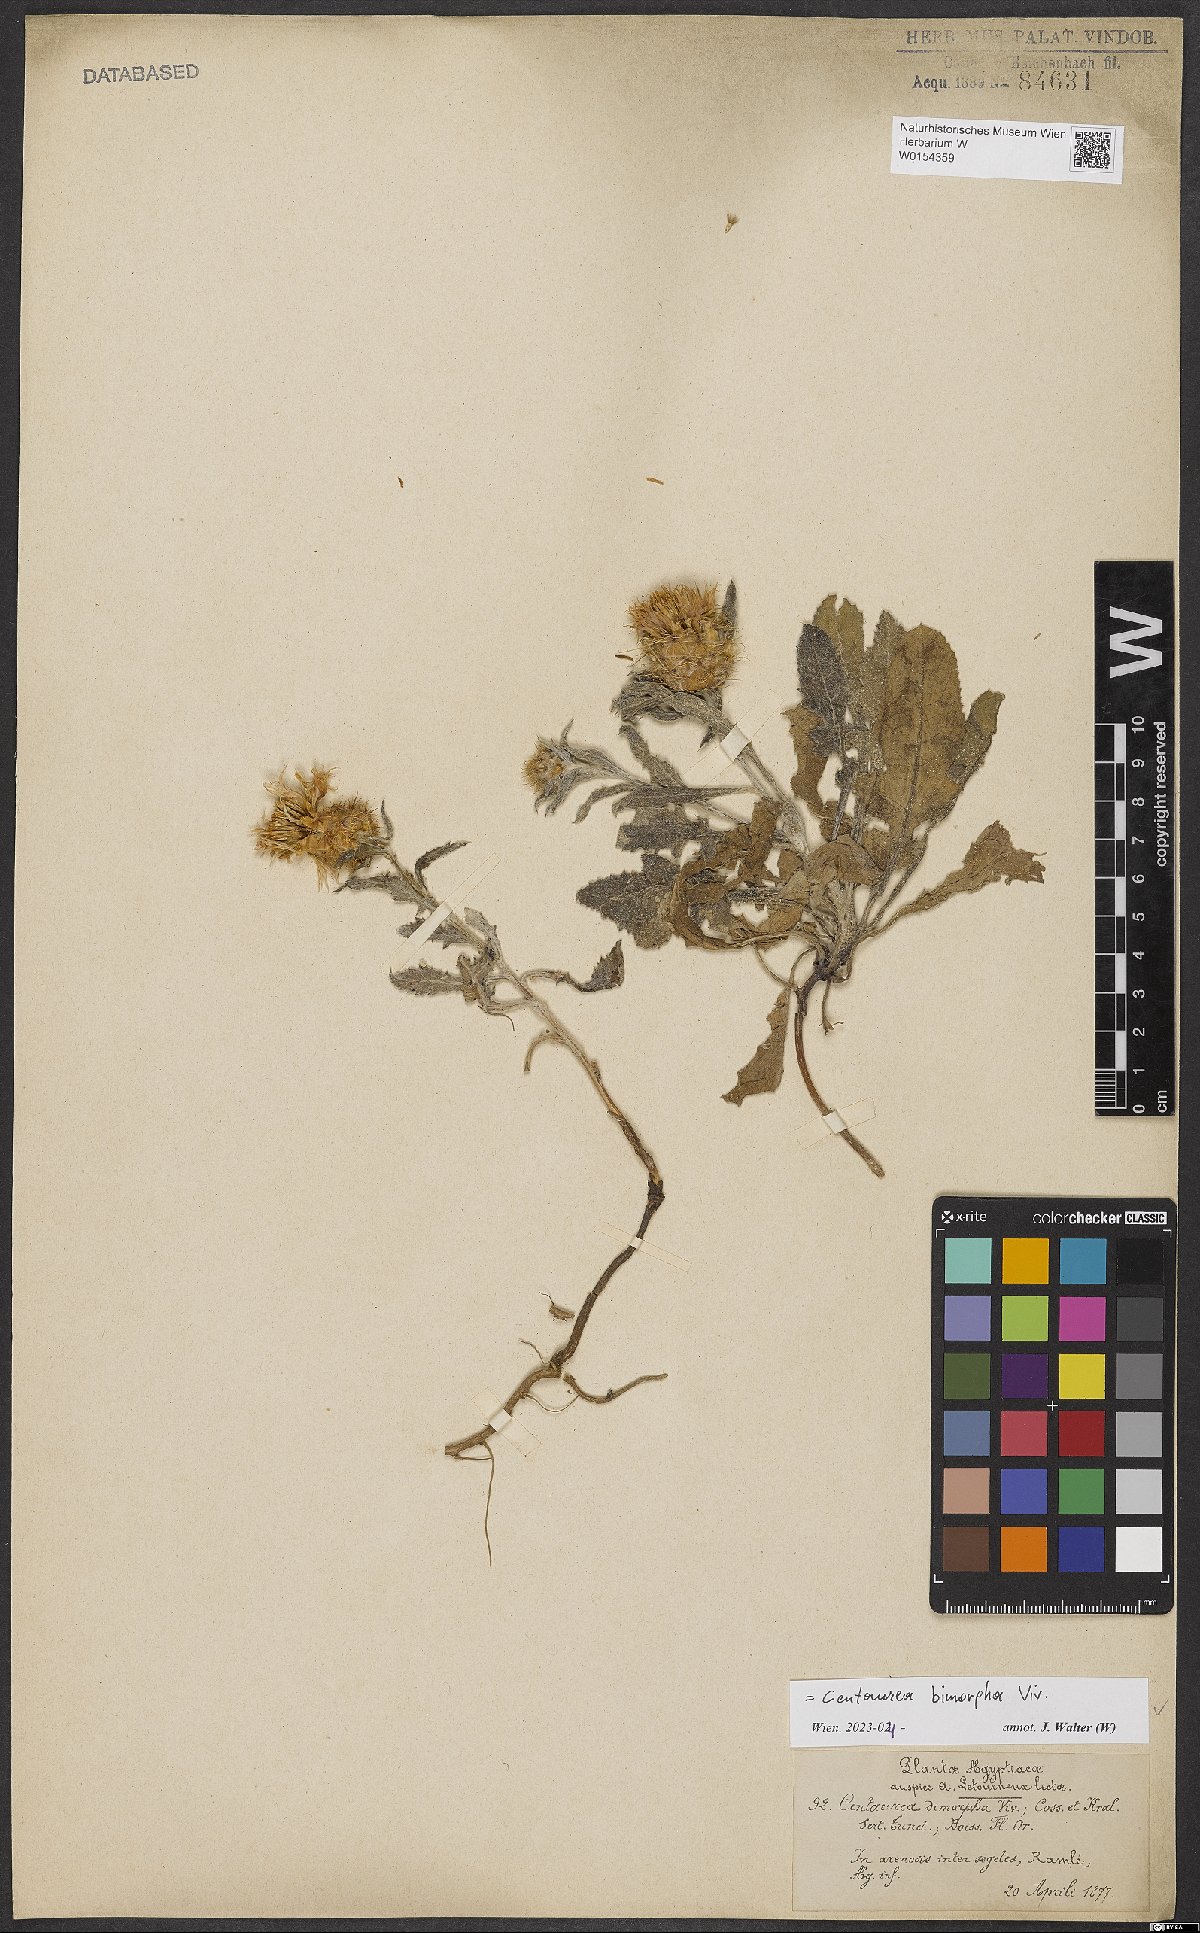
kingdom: Plantae
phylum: Tracheophyta
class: Magnoliopsida
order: Asterales
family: Asteraceae
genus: Centaurea
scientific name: Centaurea bimorpha
